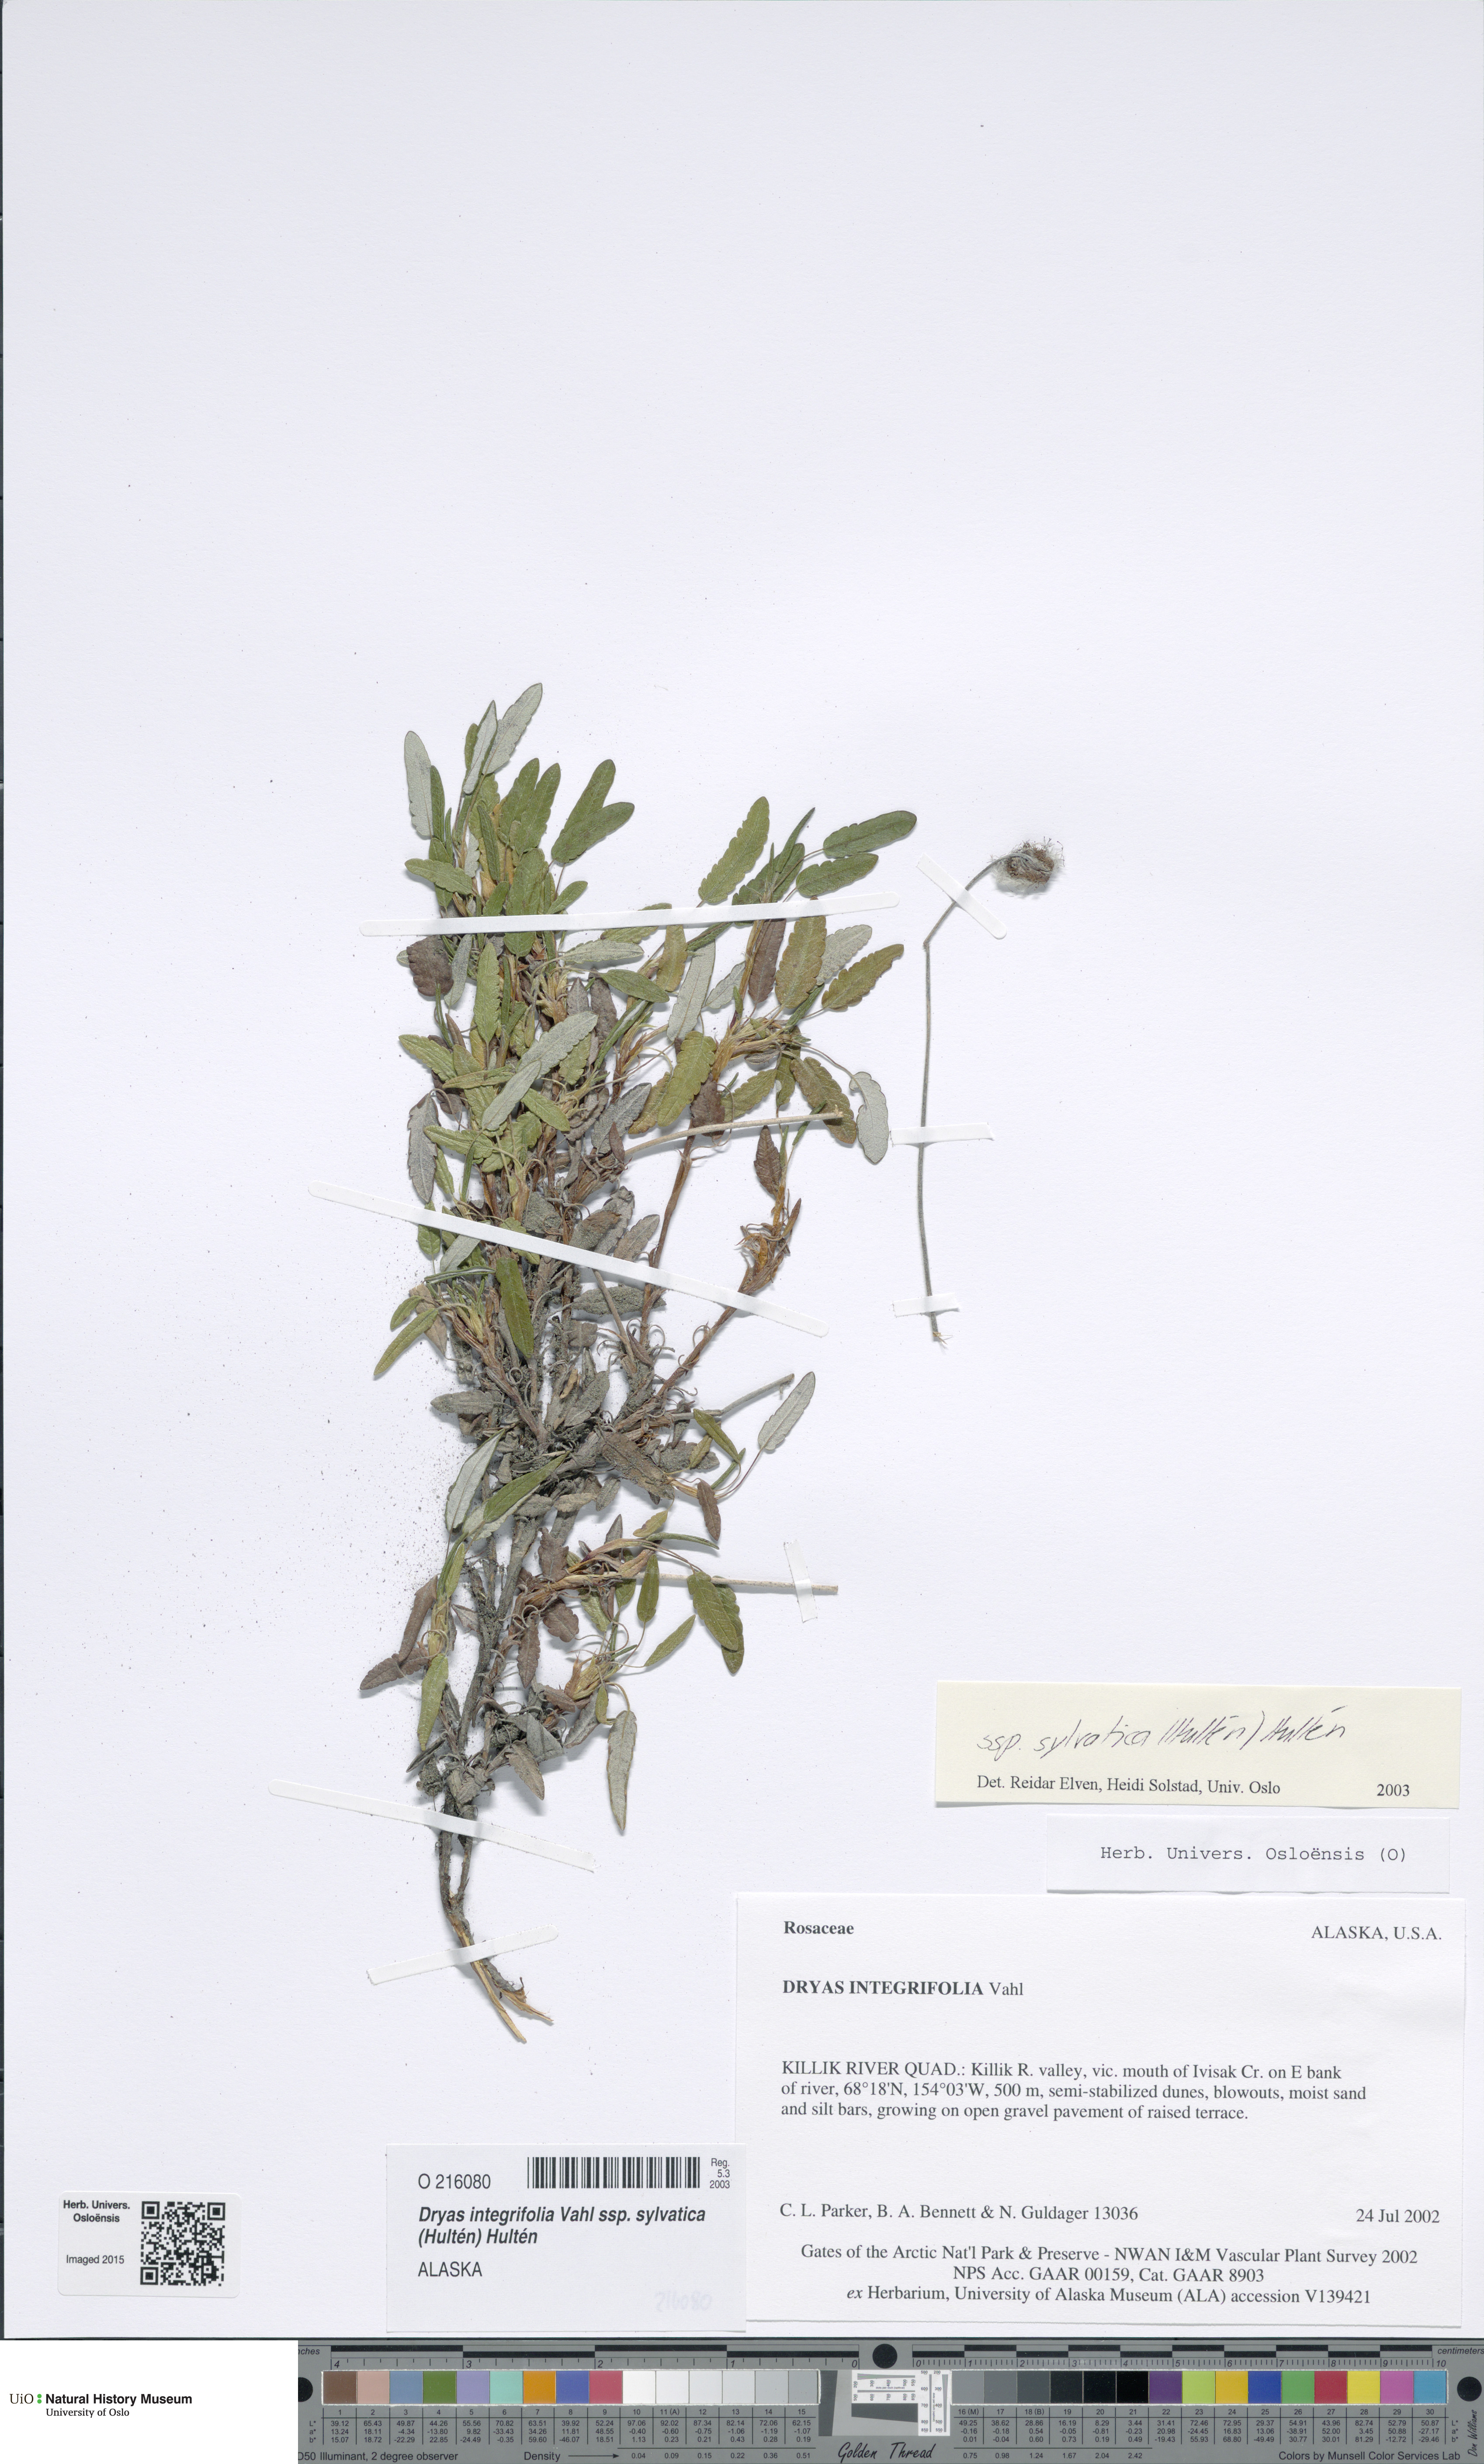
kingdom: Plantae
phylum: Tracheophyta
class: Magnoliopsida
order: Rosales
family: Rosaceae
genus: Dryas
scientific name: Dryas integrifolia
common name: Entire-leaved mountain avens
